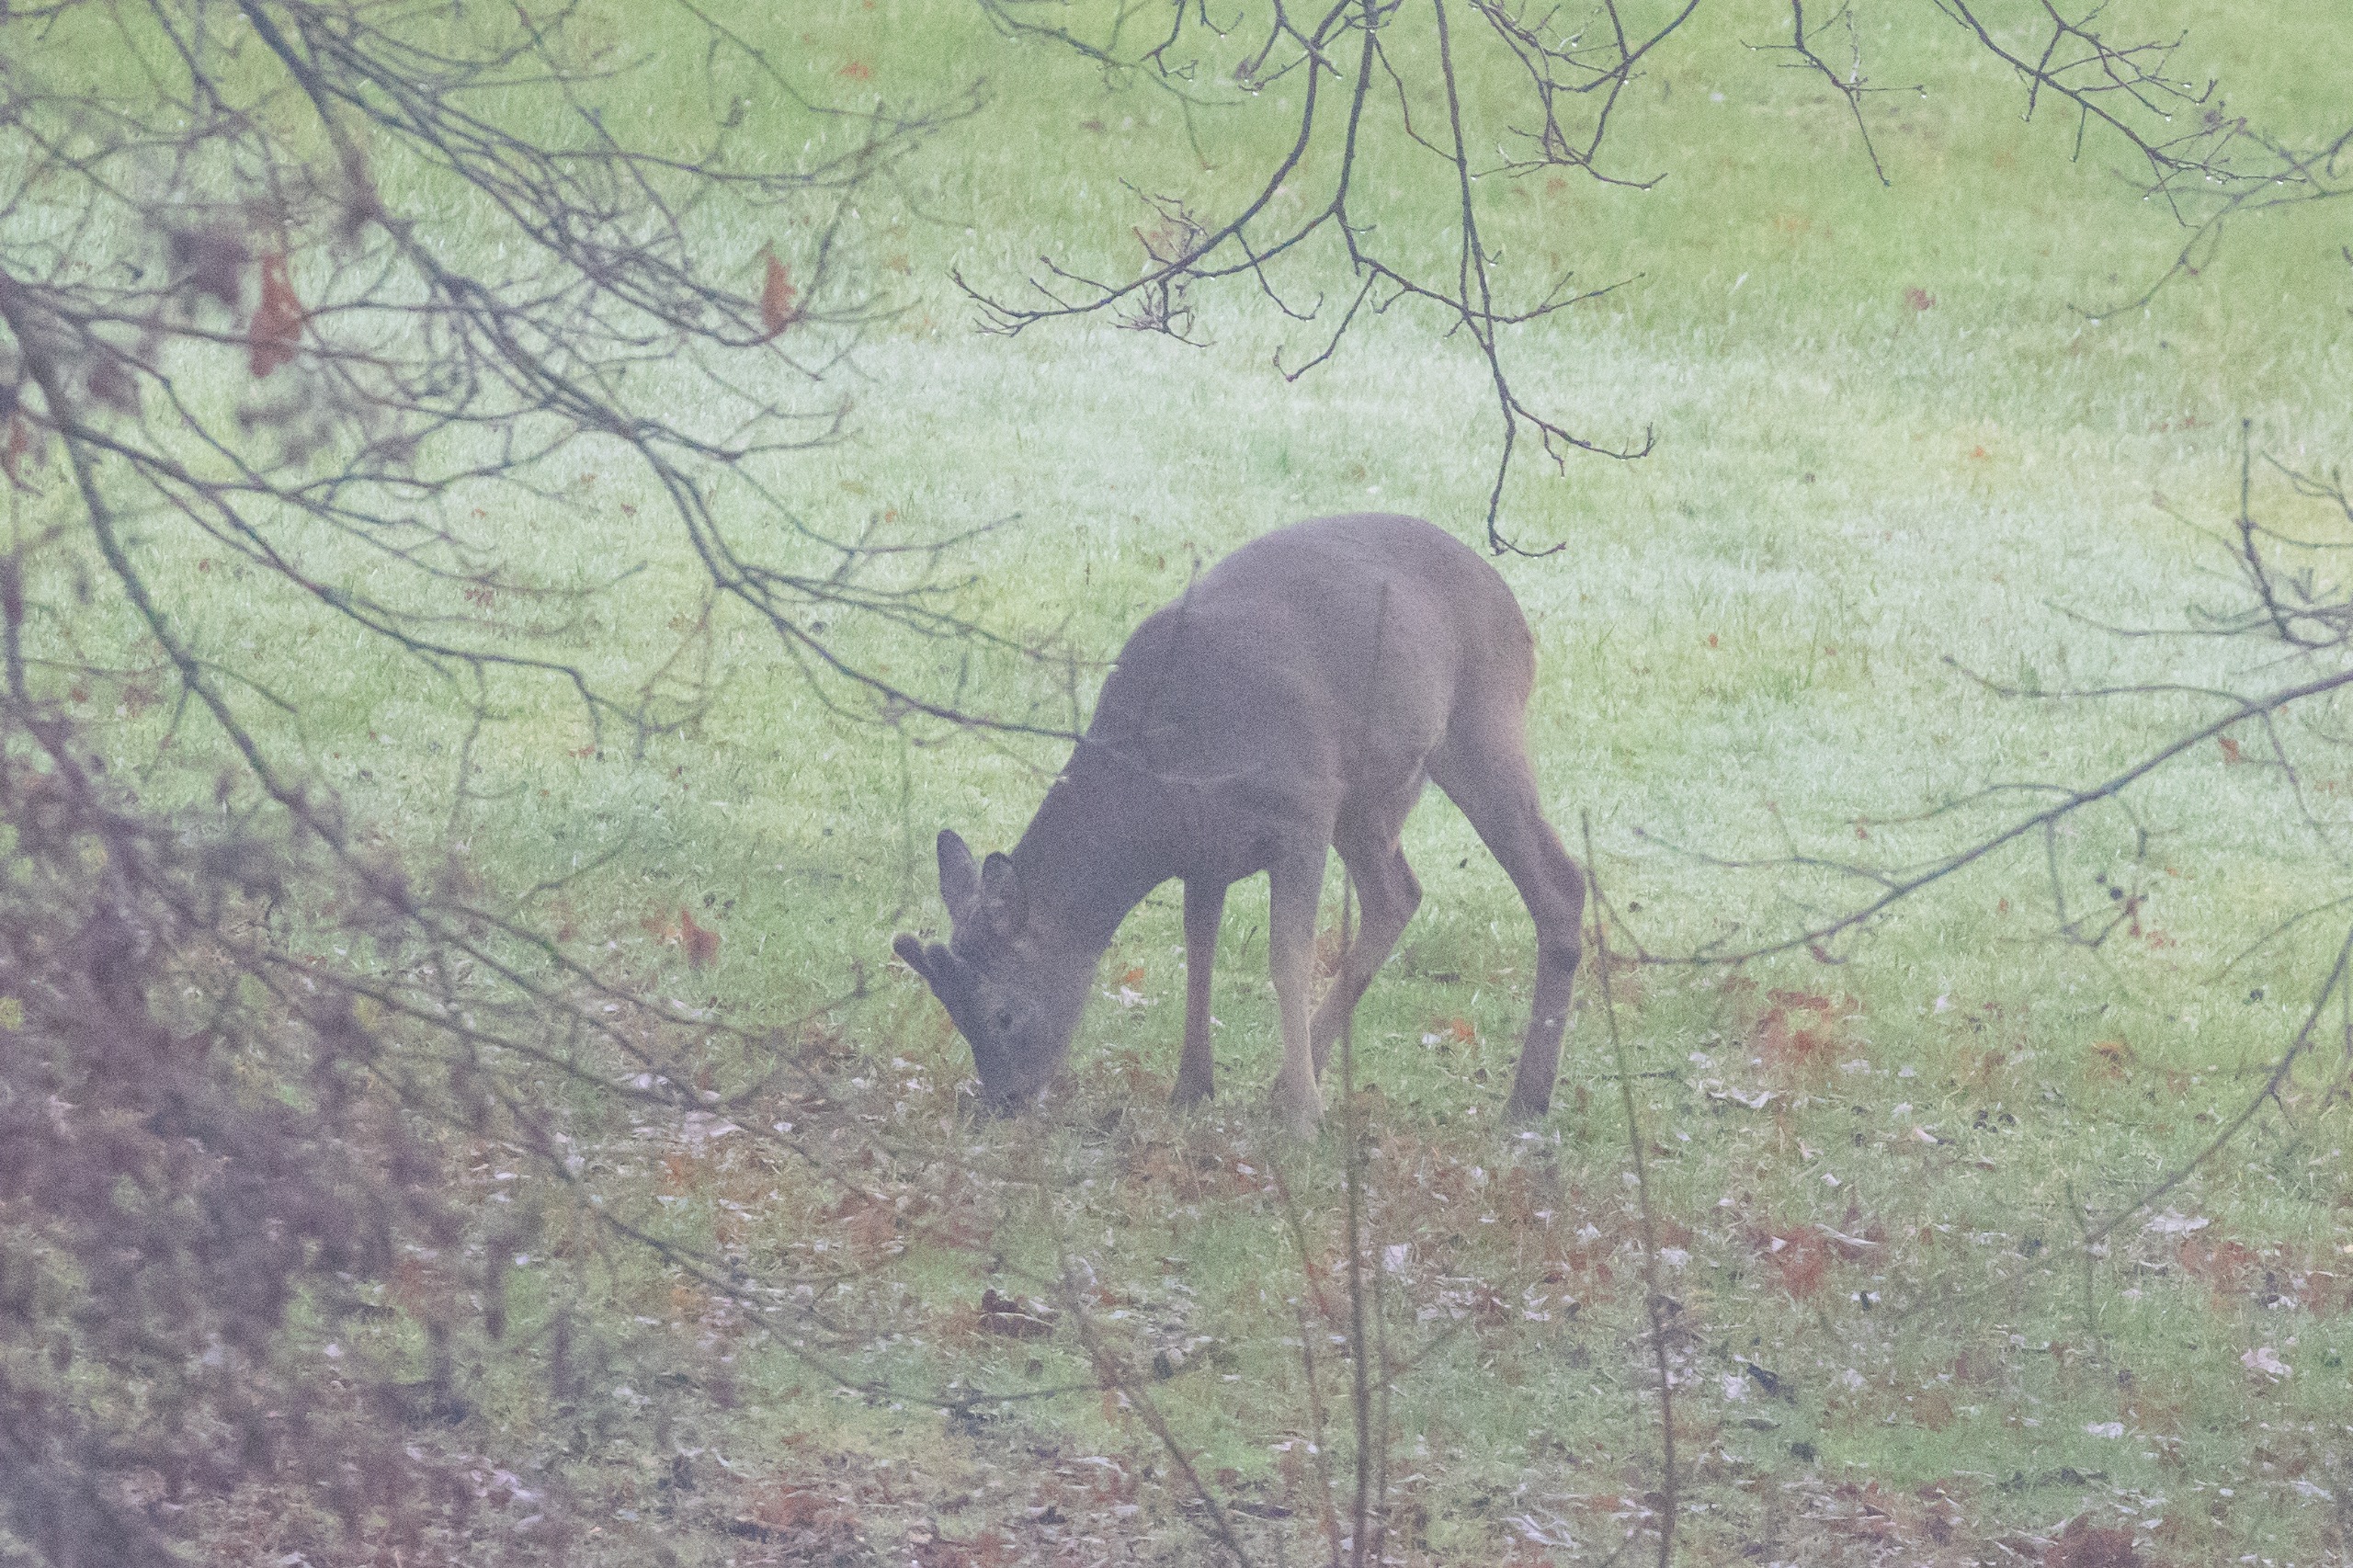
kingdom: Animalia
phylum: Chordata
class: Mammalia
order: Artiodactyla
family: Cervidae
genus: Capreolus
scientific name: Capreolus capreolus
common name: Rådyr
